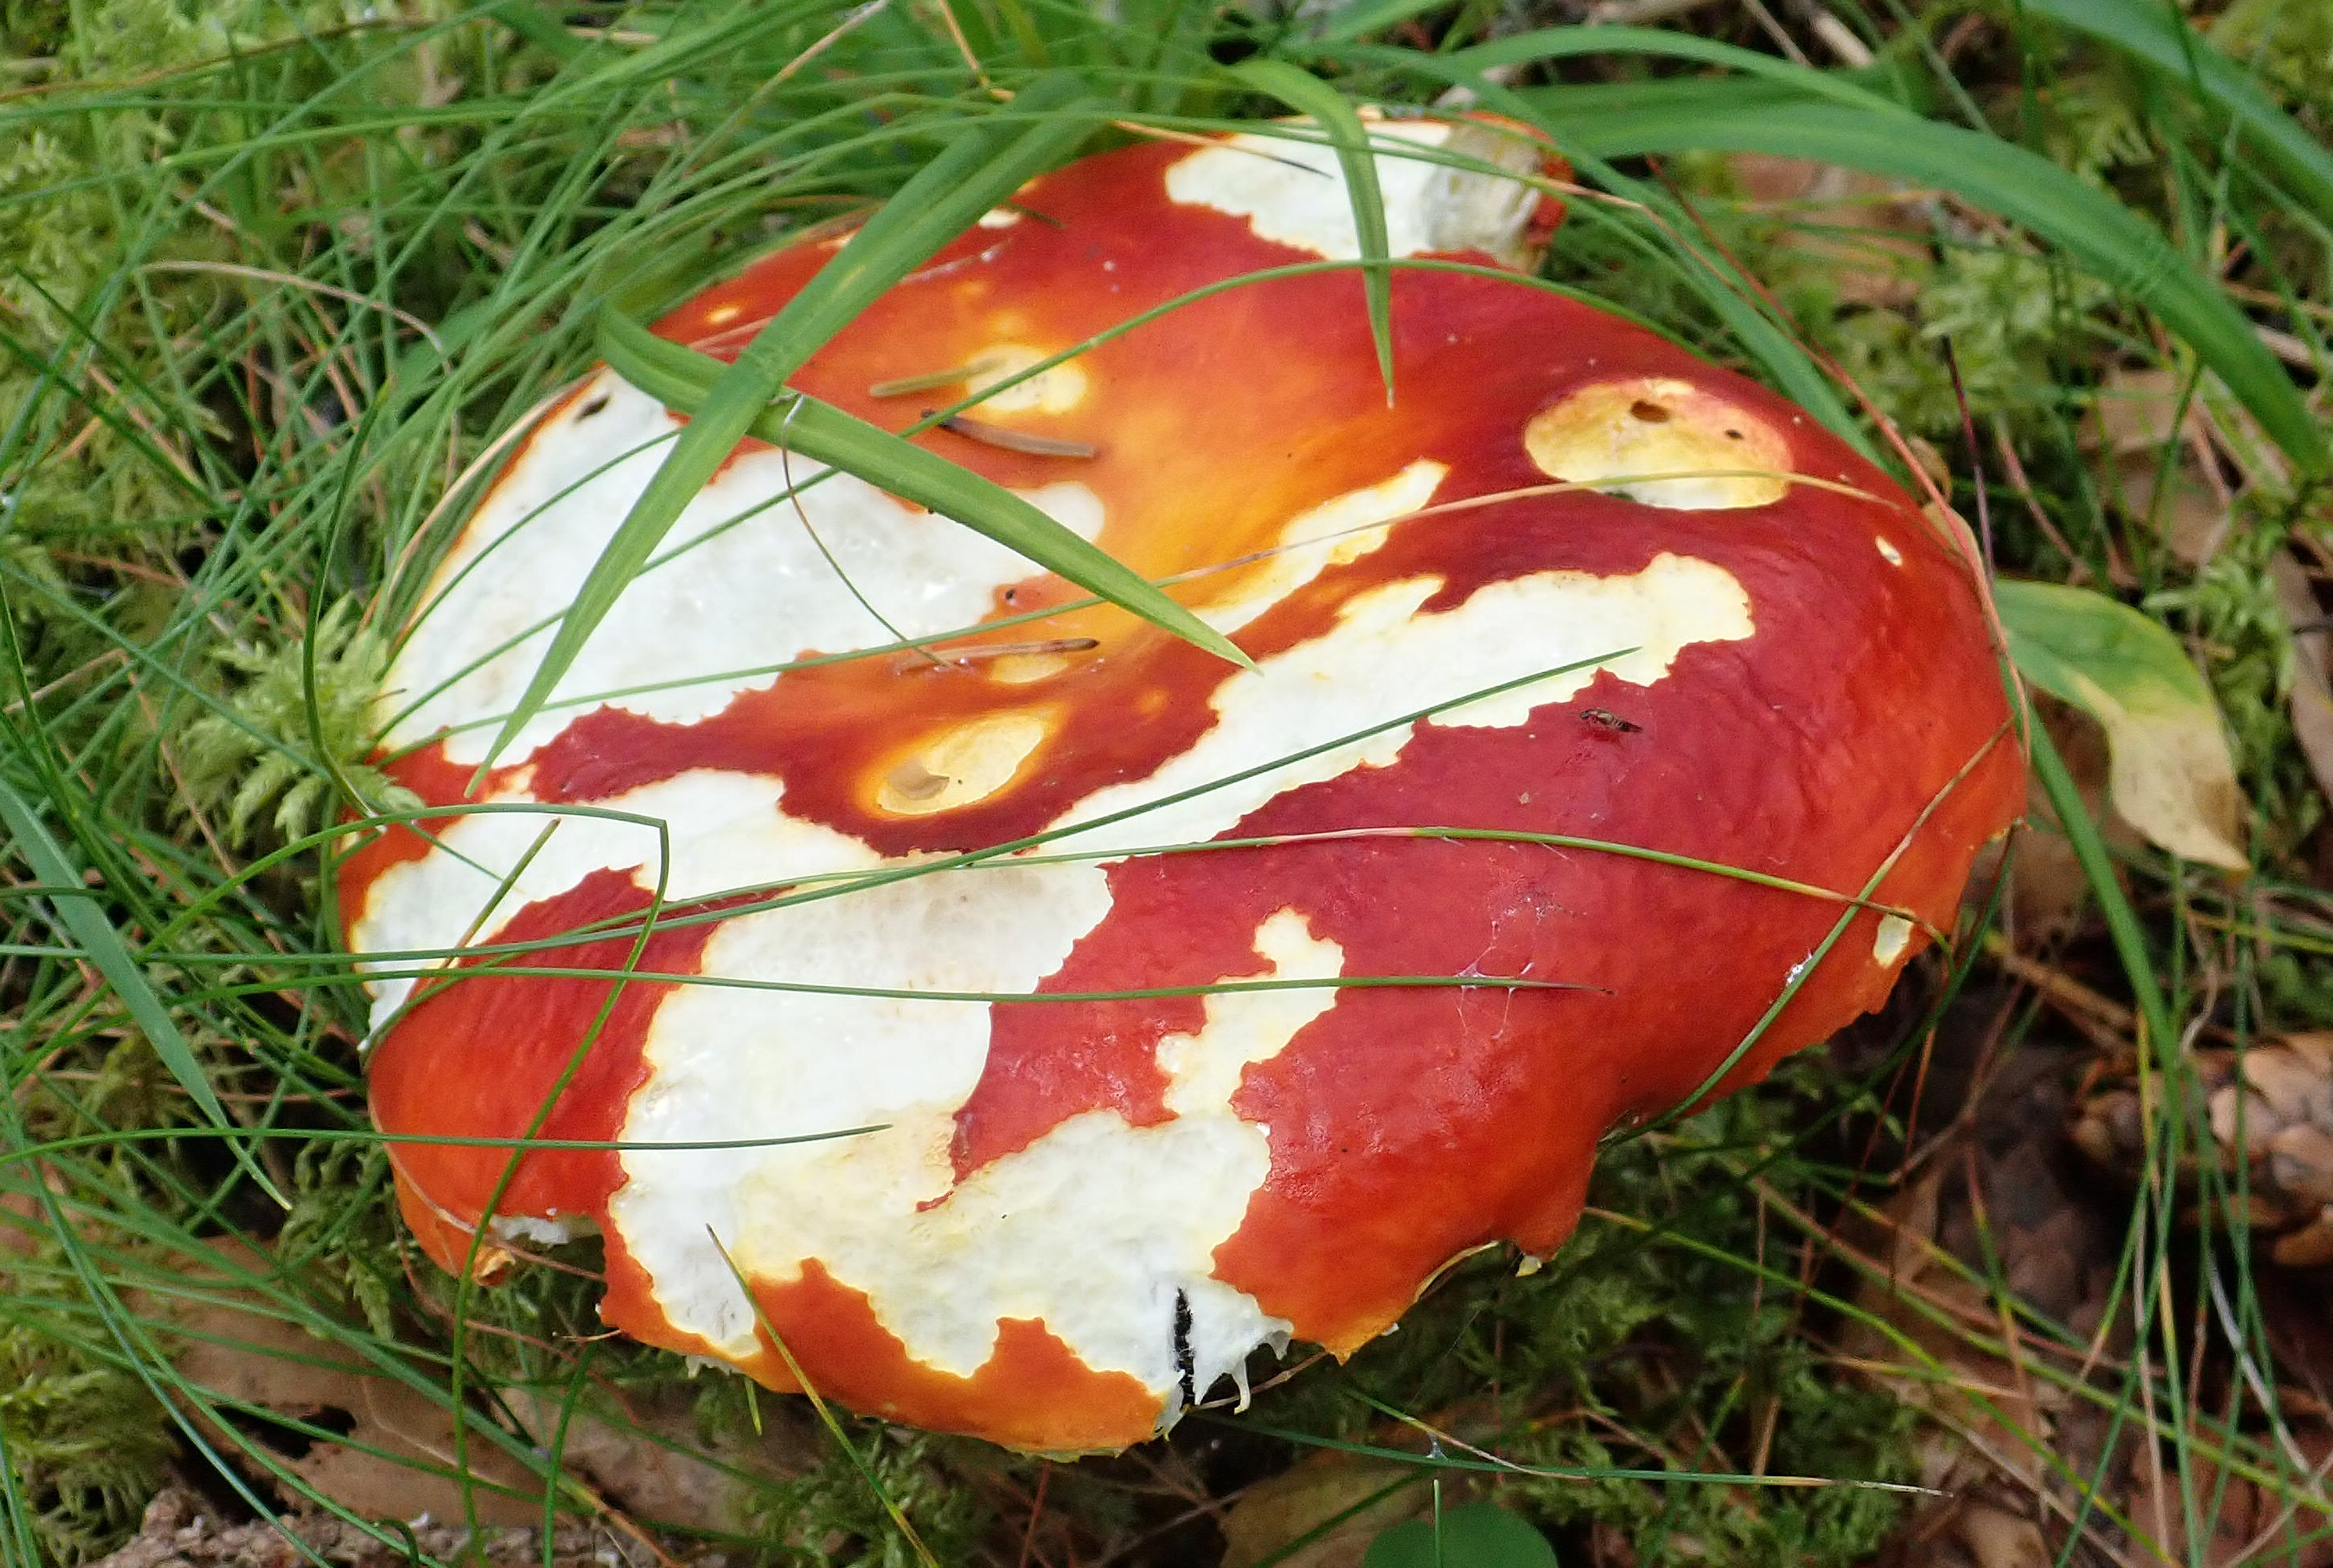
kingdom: Fungi
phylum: Basidiomycota
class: Agaricomycetes
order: Russulales
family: Russulaceae
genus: Russula
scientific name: Russula aurea
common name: Gilded brittlegill
